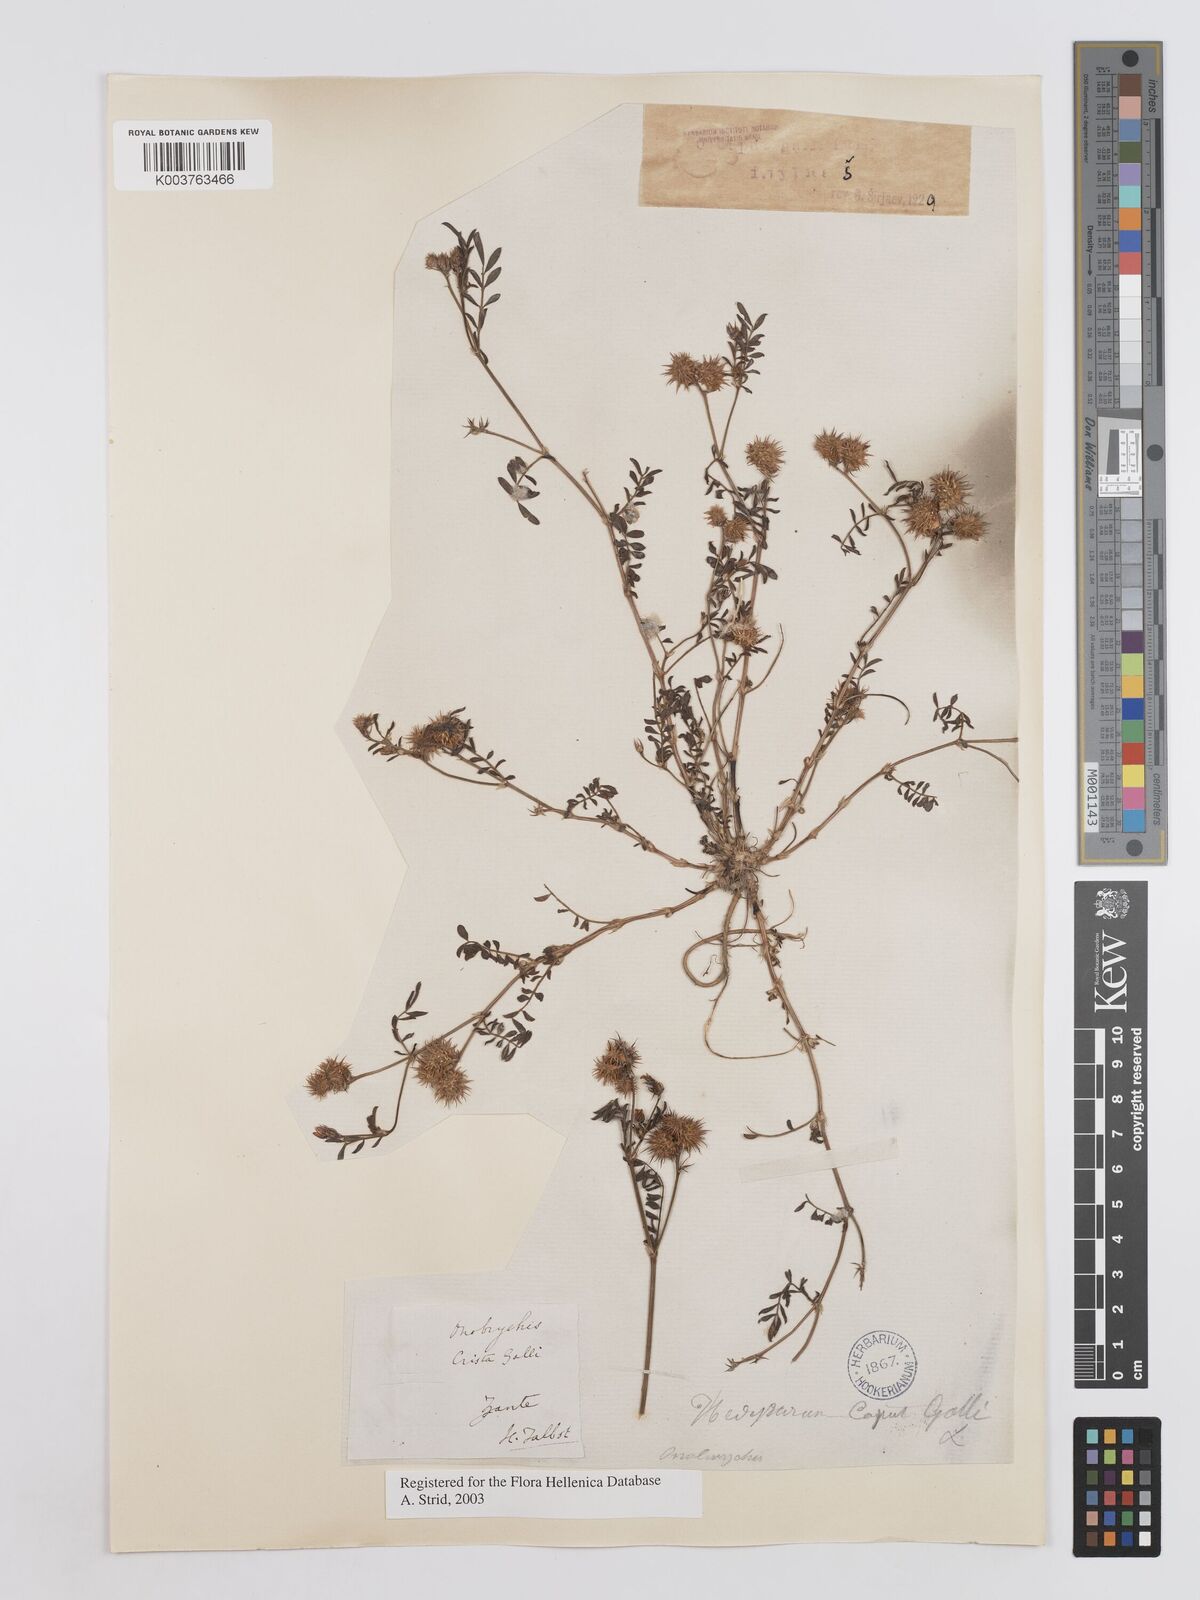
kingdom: Plantae
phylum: Tracheophyta
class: Magnoliopsida
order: Fabales
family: Fabaceae
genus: Onobrychis
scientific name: Onobrychis caput-galli
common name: Cockscomb sainfoin
